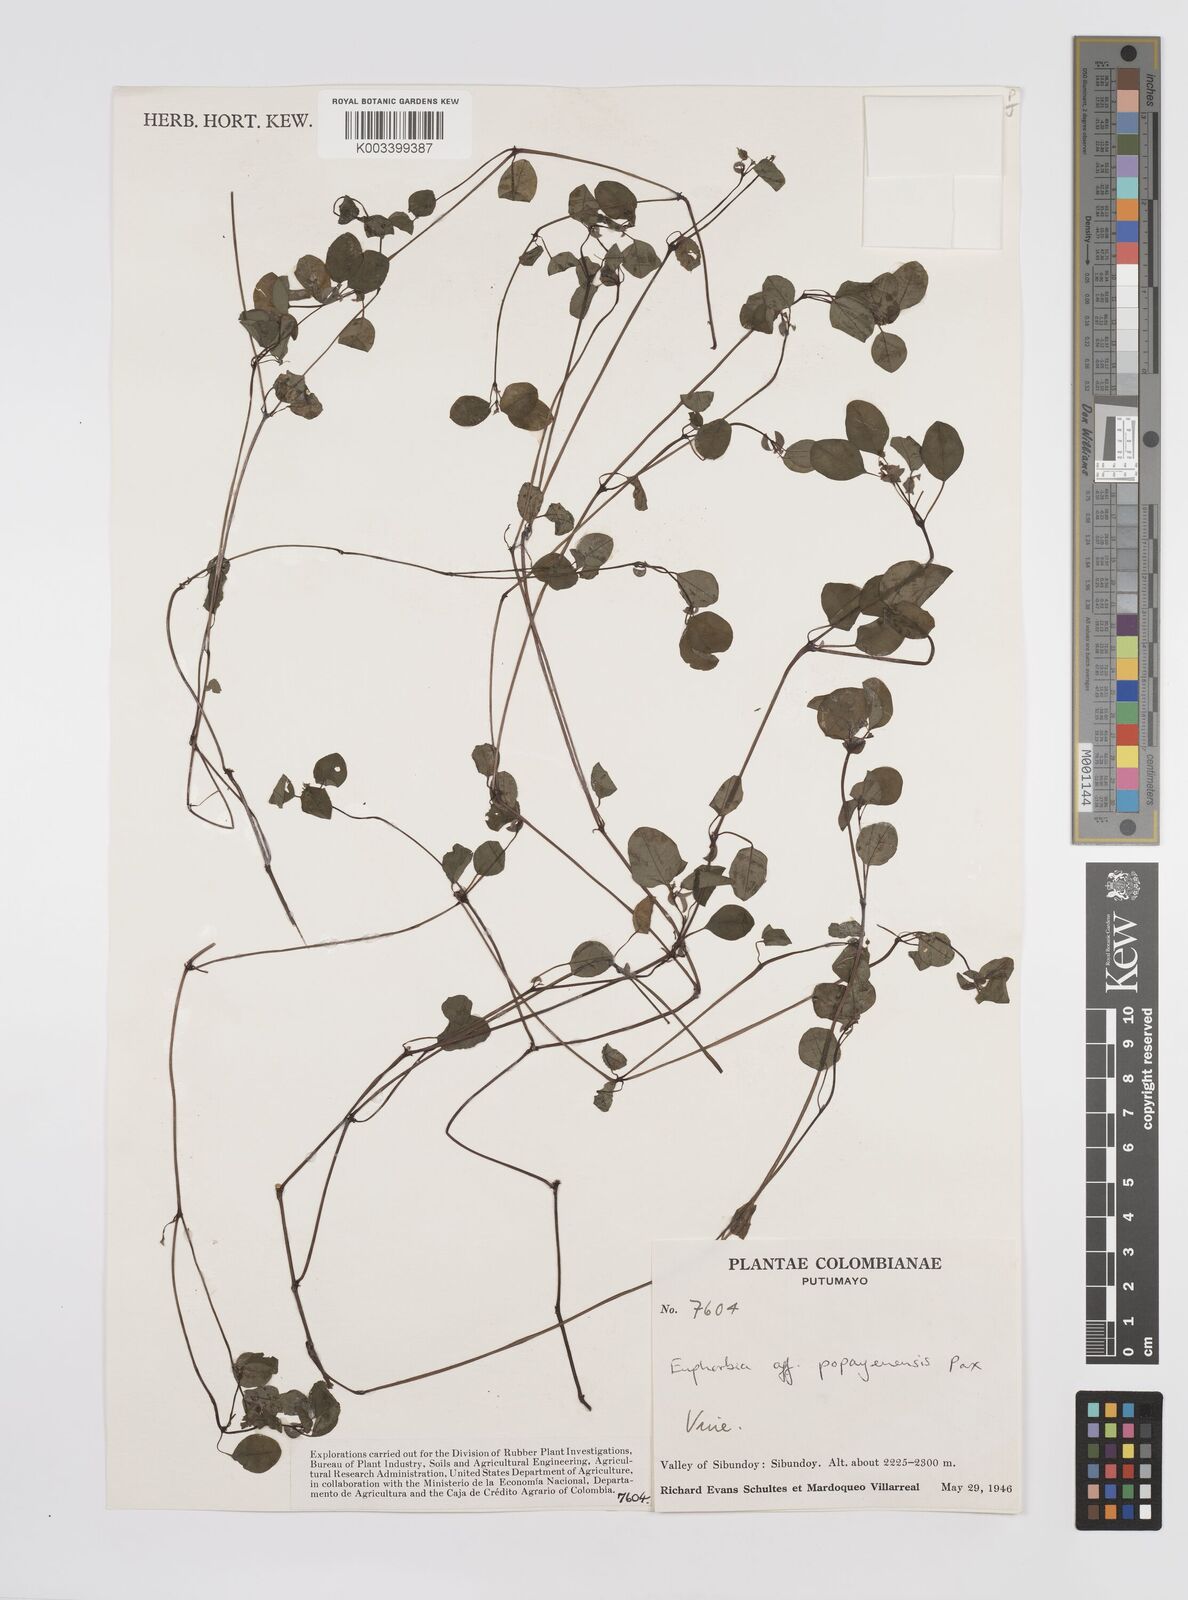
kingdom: Plantae
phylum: Tracheophyta
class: Magnoliopsida
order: Malpighiales
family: Euphorbiaceae
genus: Euphorbia
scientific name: Euphorbia fraseri
